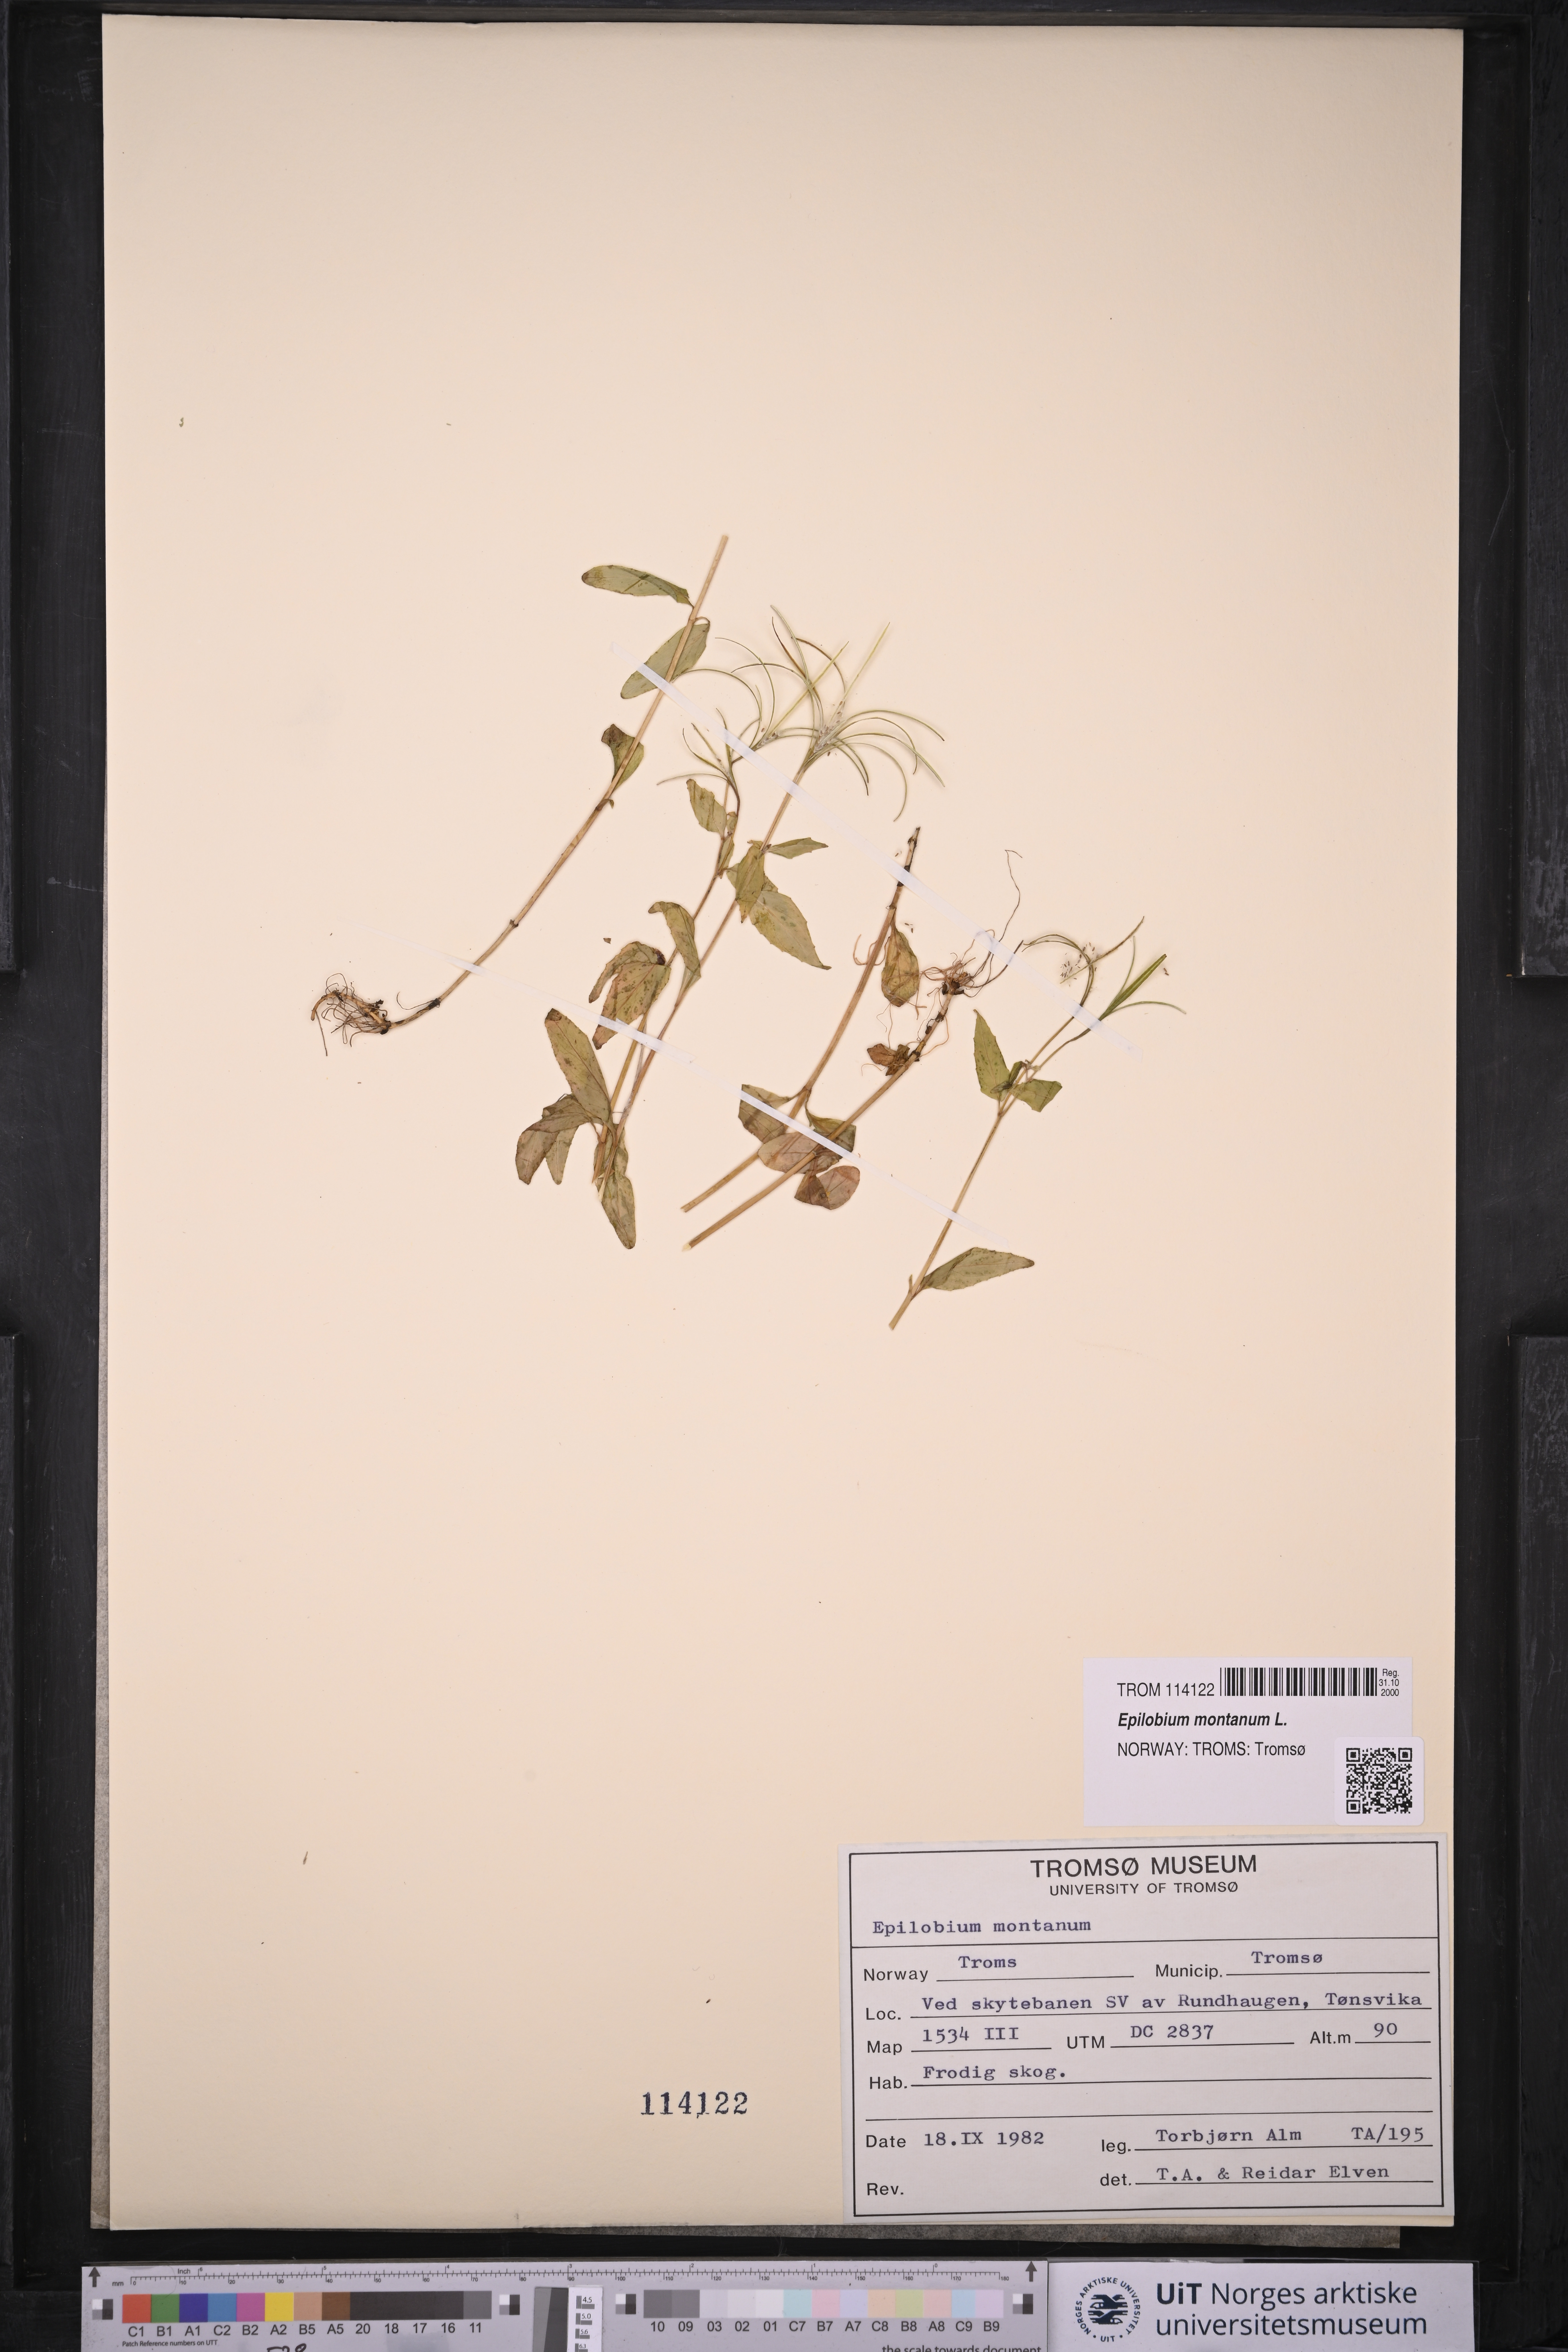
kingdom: Plantae
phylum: Tracheophyta
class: Magnoliopsida
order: Myrtales
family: Onagraceae
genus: Epilobium
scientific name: Epilobium montanum
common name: Broad-leaved willowherb
